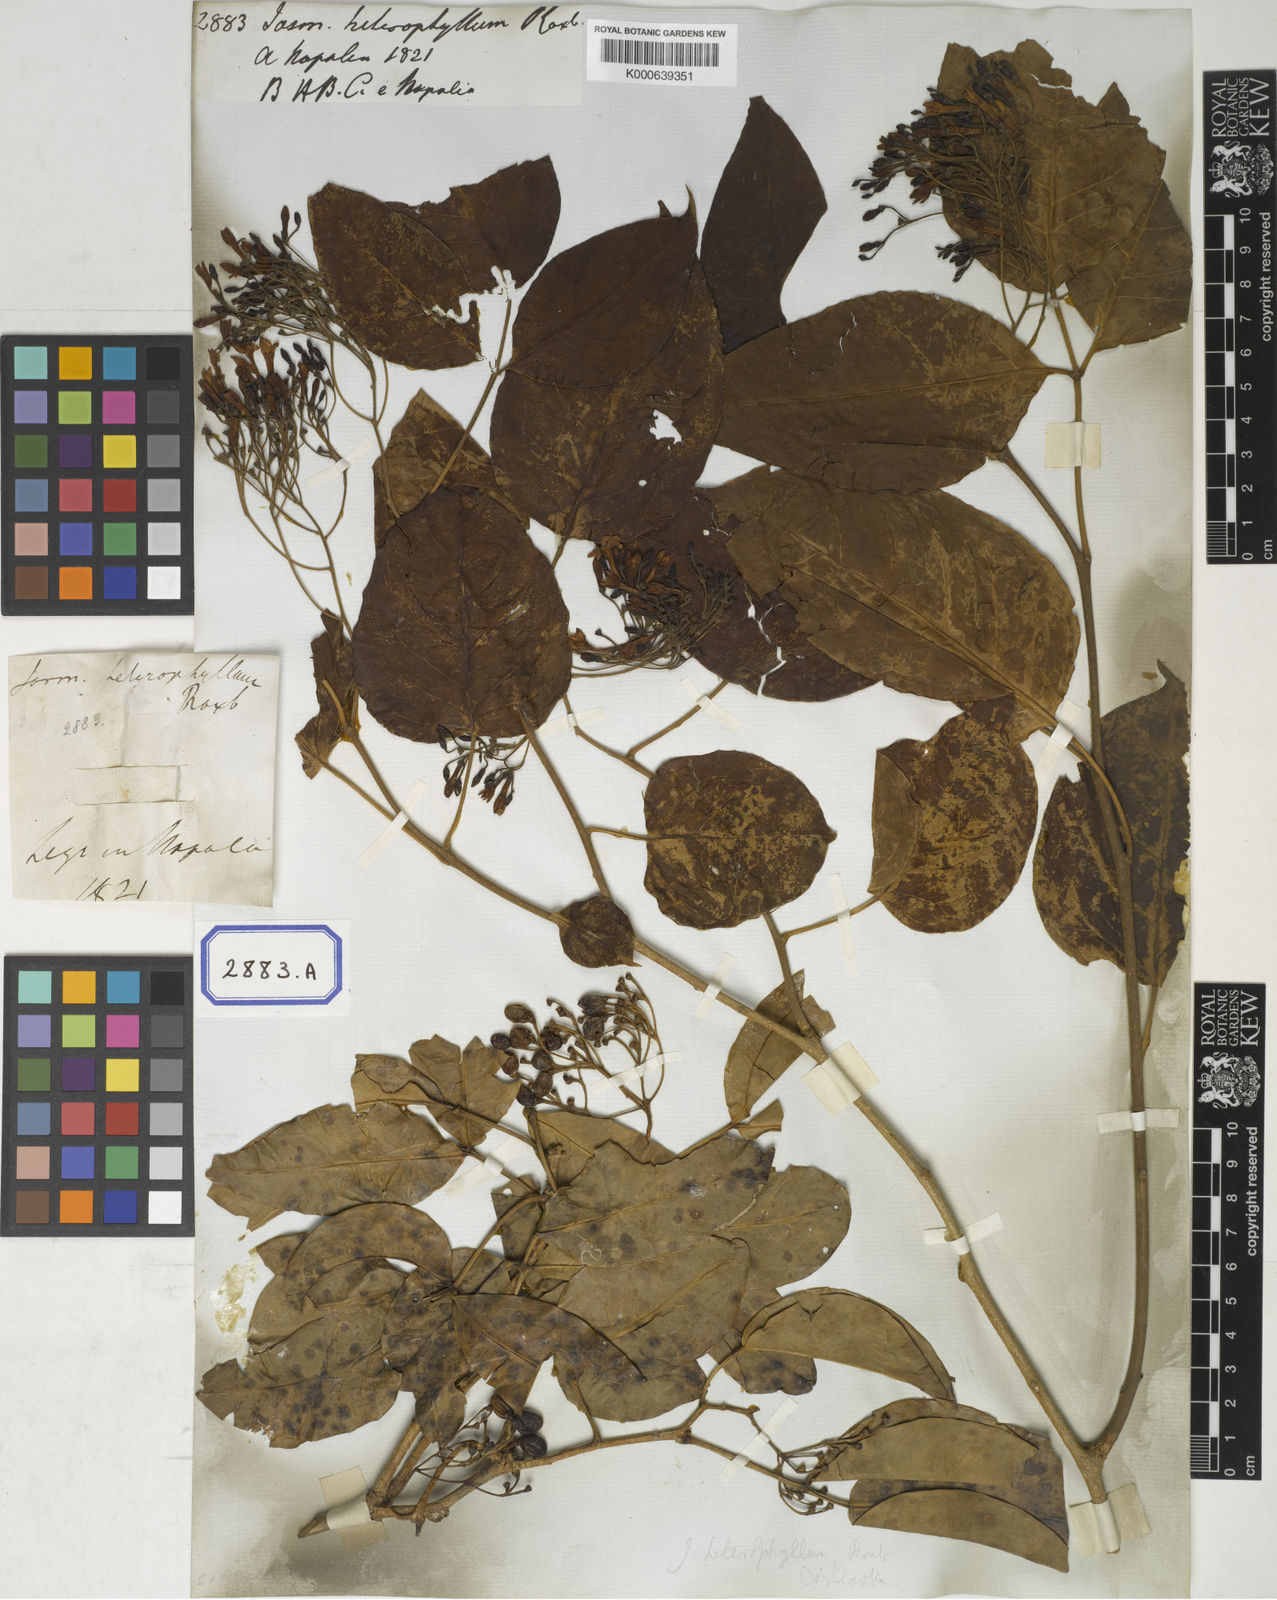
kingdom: Plantae
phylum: Tracheophyta
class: Magnoliopsida
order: Lamiales
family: Oleaceae
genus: Chrysojasminum
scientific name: Chrysojasminum subhumile
